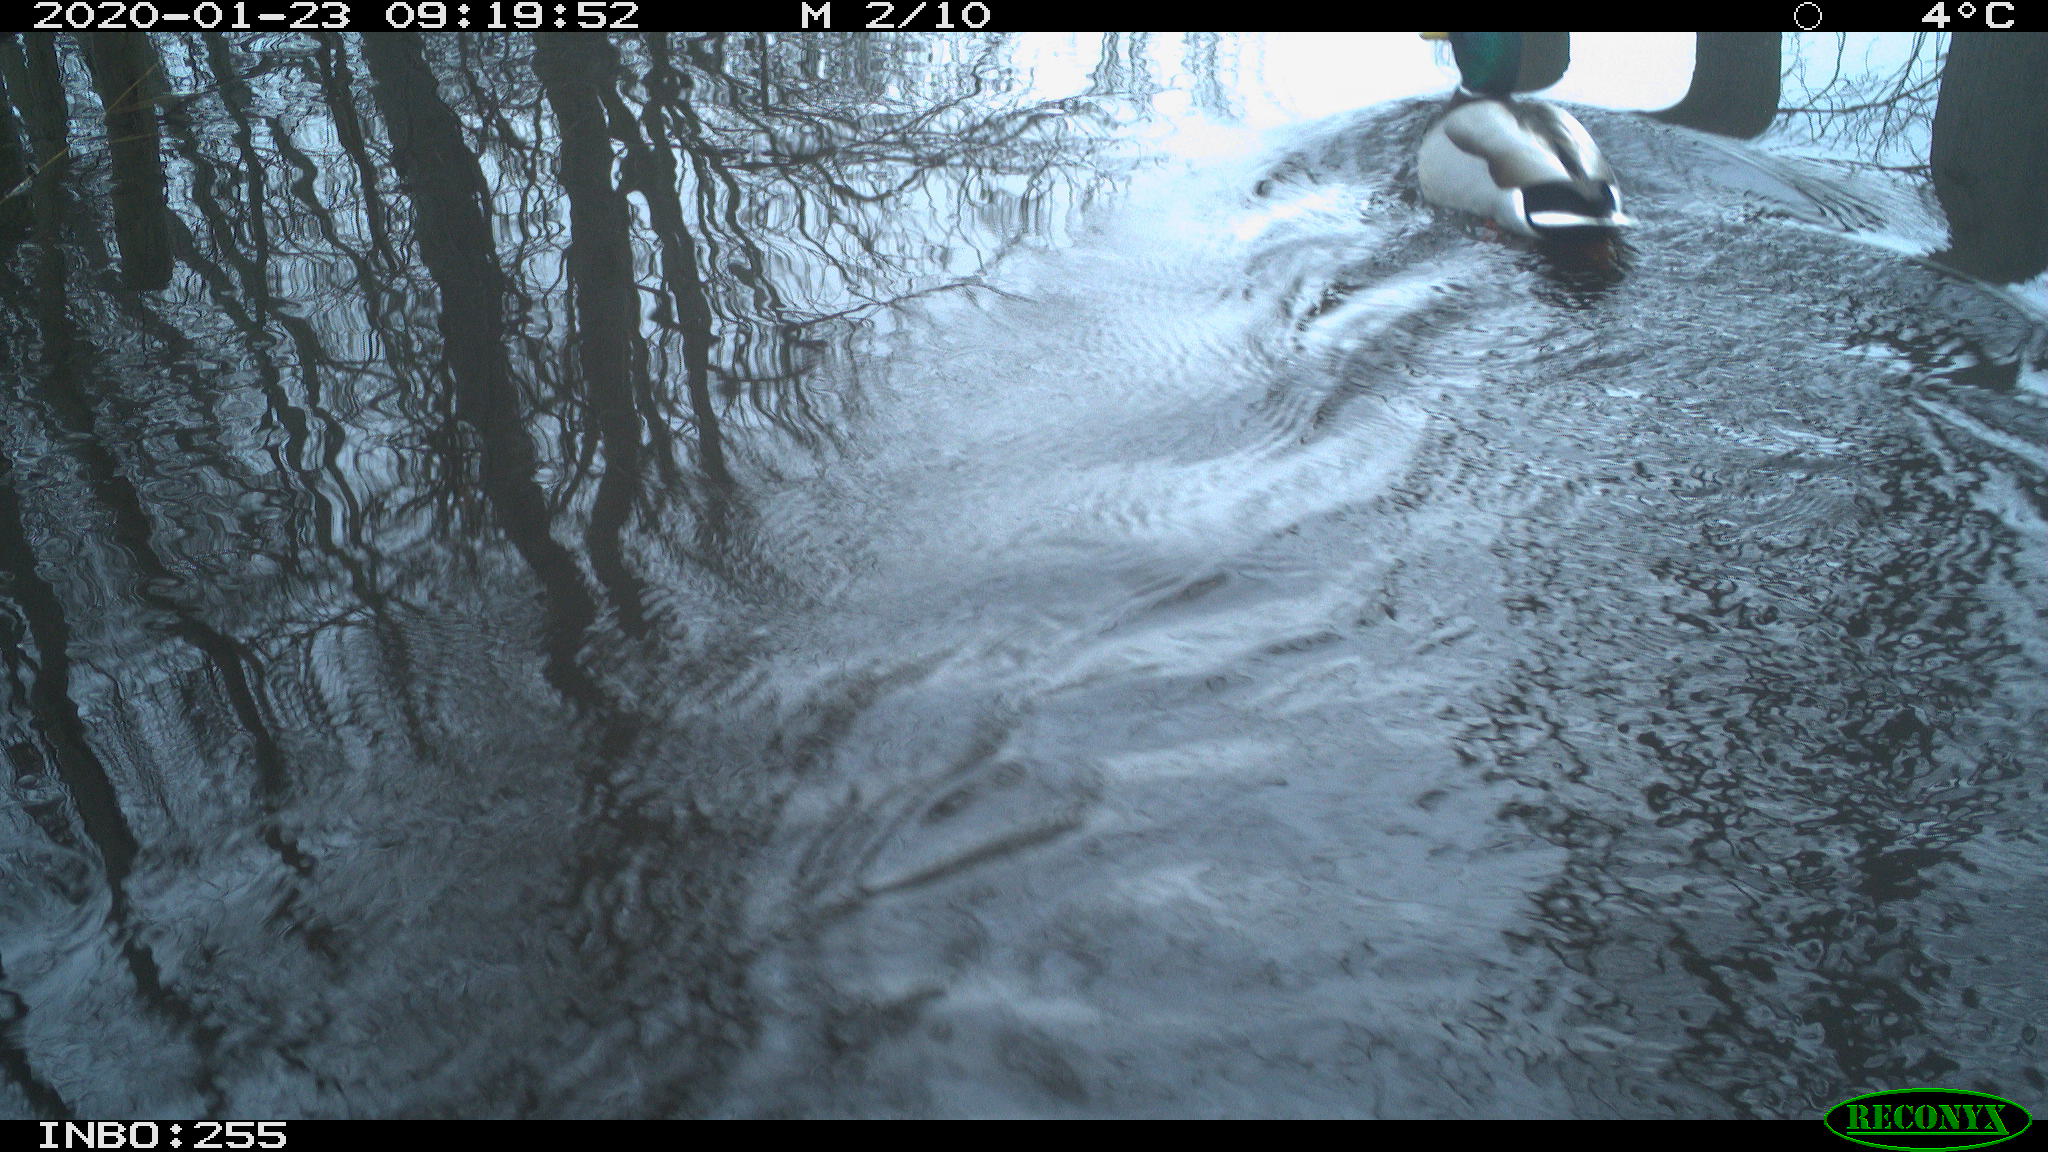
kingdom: Animalia
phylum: Chordata
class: Aves
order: Anseriformes
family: Anatidae
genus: Anas
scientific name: Anas platyrhynchos
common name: Mallard
